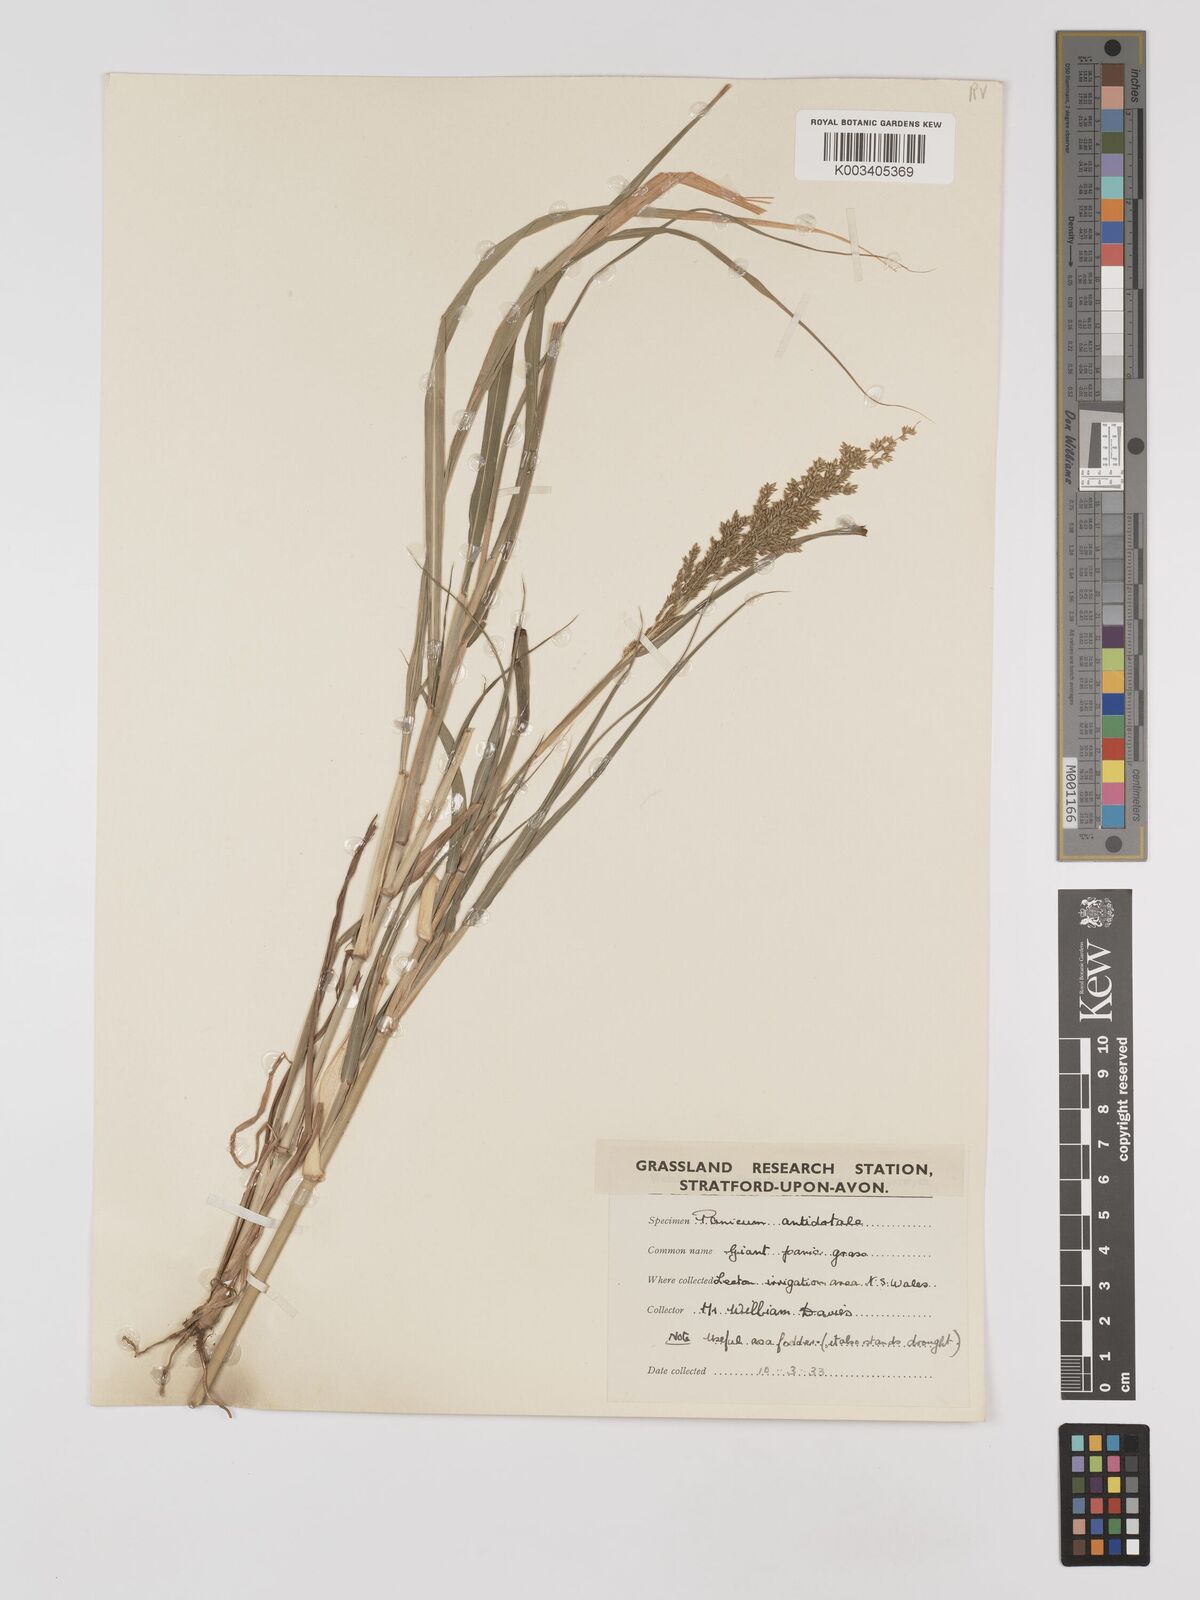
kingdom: Plantae
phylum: Tracheophyta
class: Liliopsida
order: Poales
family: Poaceae
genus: Panicum
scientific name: Panicum antidotale
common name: Blue panicum
